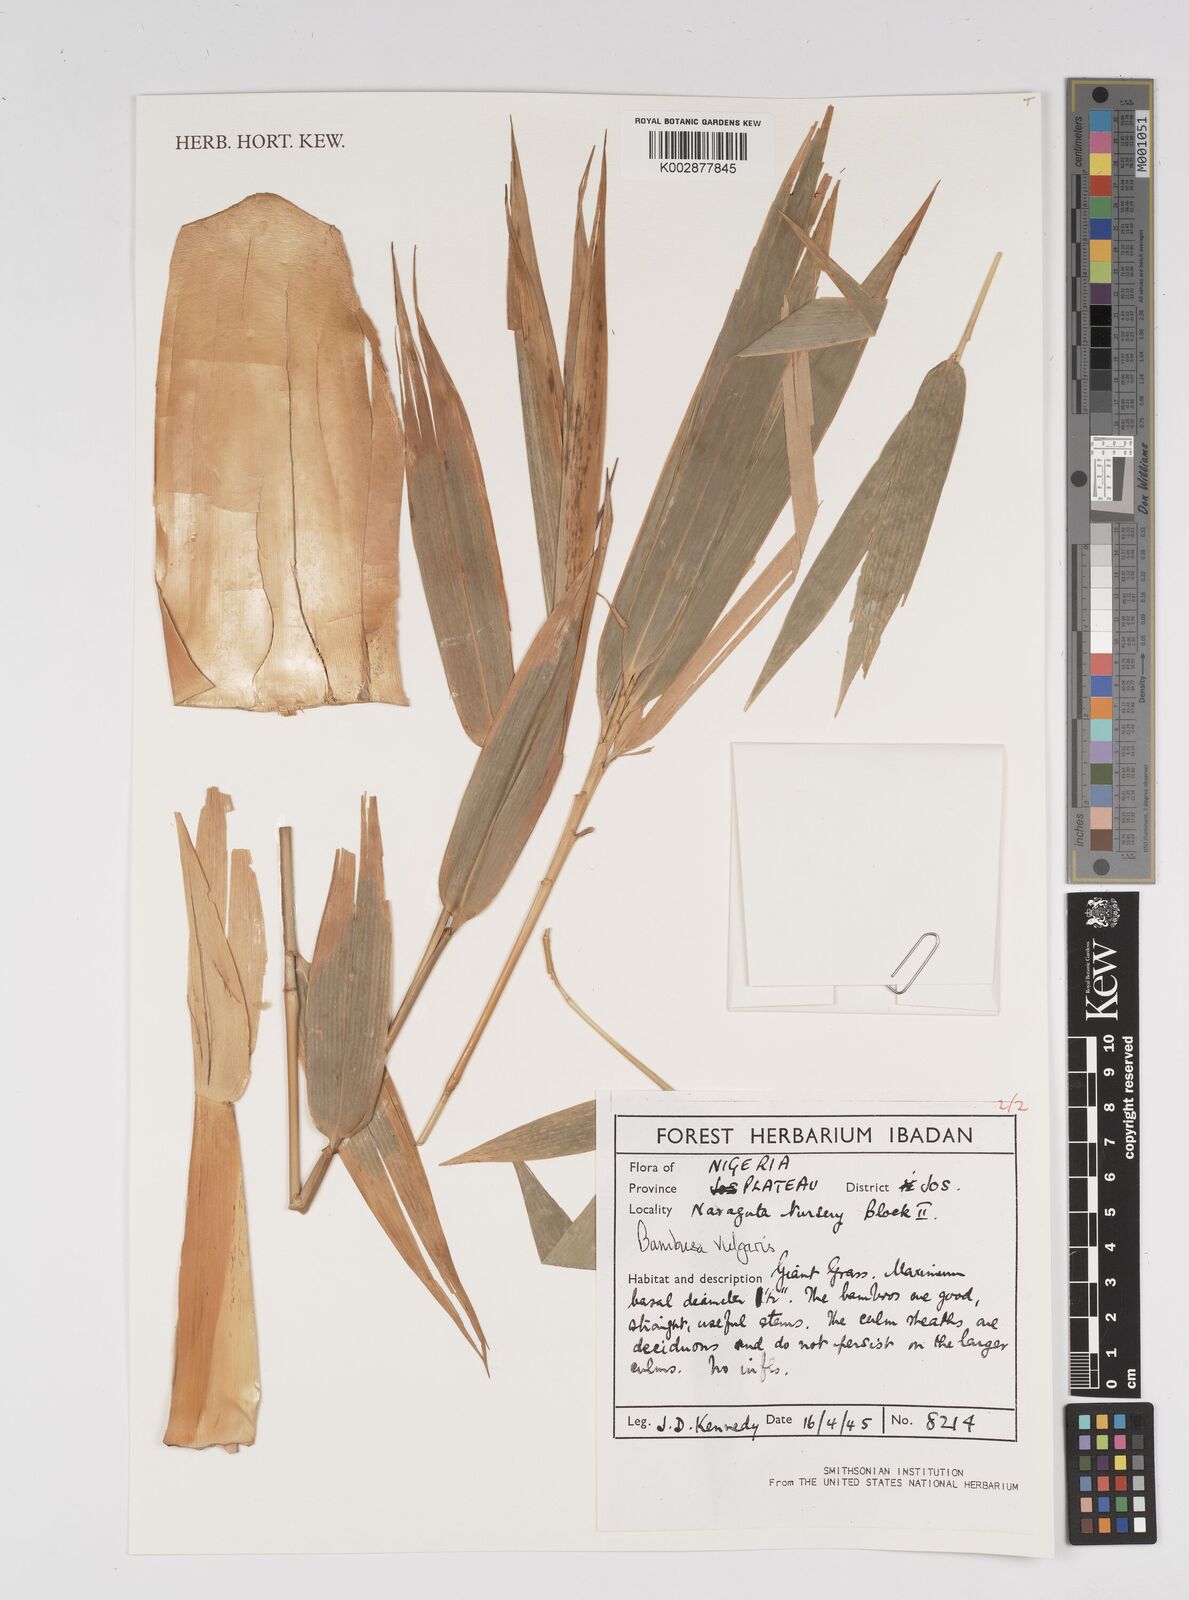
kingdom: Plantae
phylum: Tracheophyta
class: Liliopsida
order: Poales
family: Poaceae
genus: Bambusa
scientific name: Bambusa vulgaris
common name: Common bamboo
